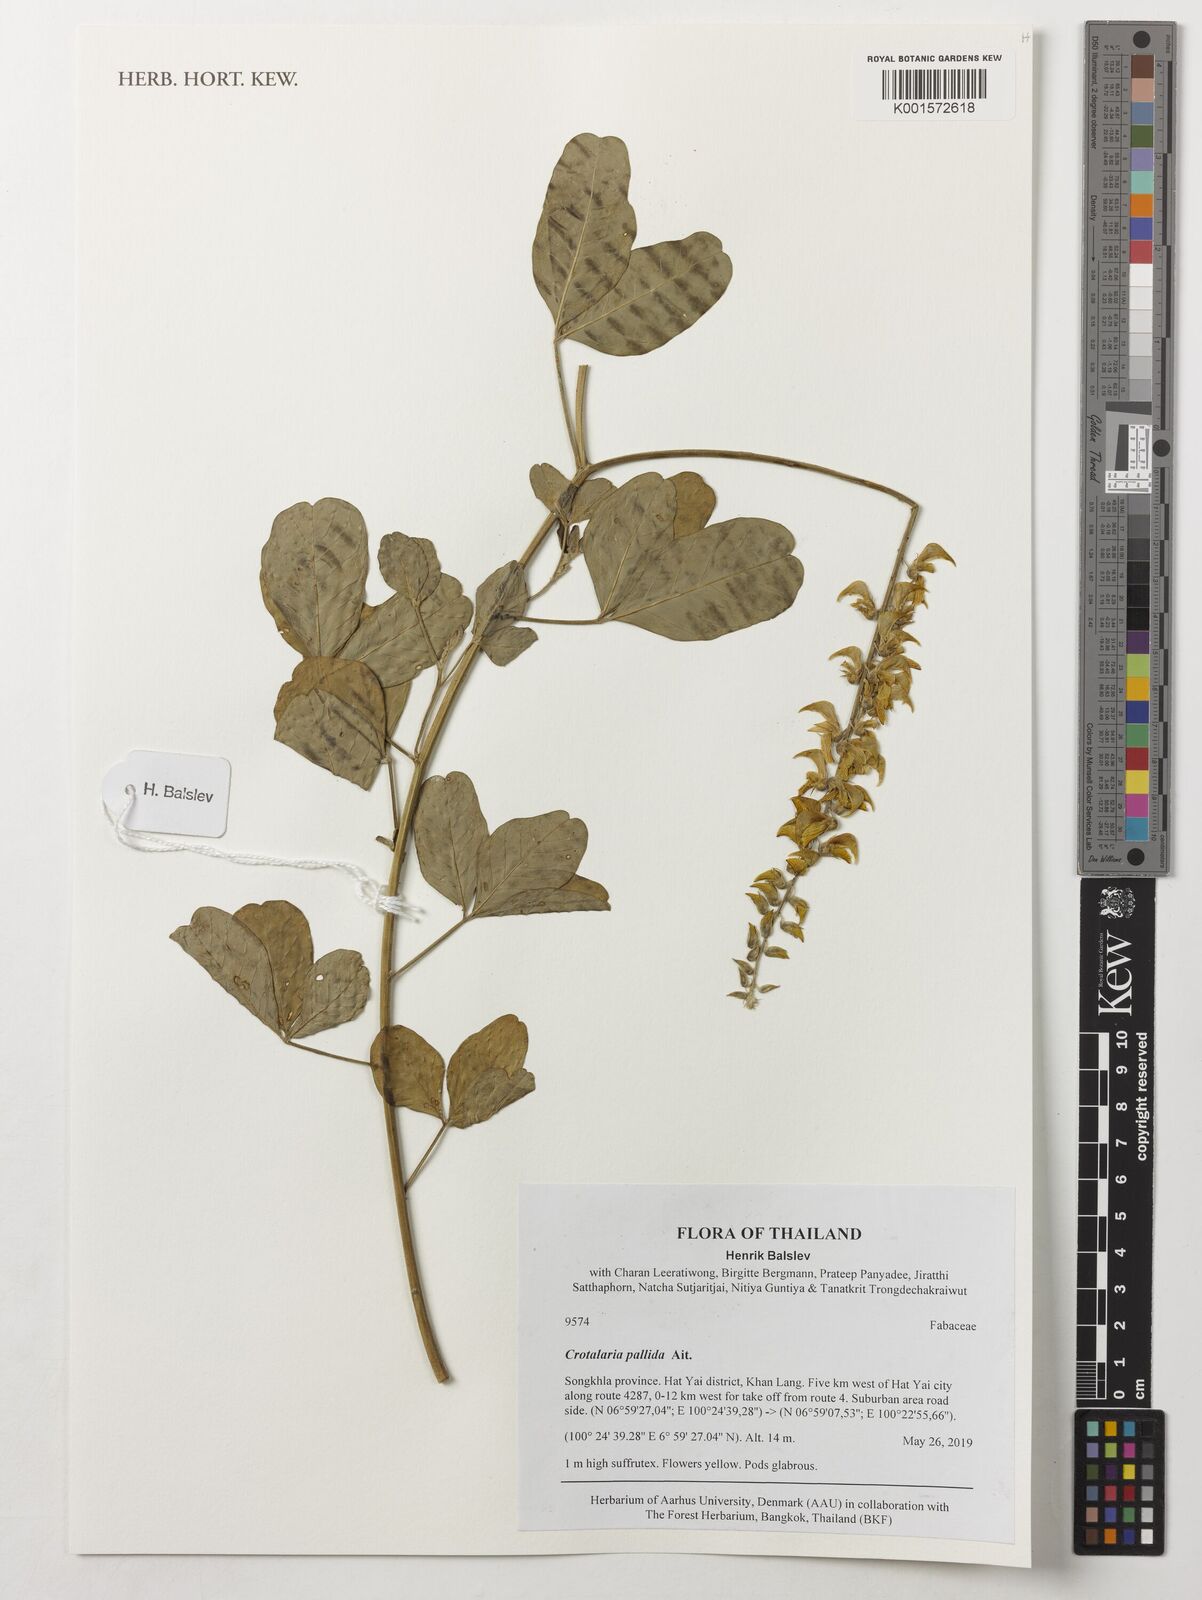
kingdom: Plantae
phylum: Tracheophyta
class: Magnoliopsida
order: Fabales
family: Fabaceae
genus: Crotalaria
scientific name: Crotalaria pallida
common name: Smooth rattlebox
